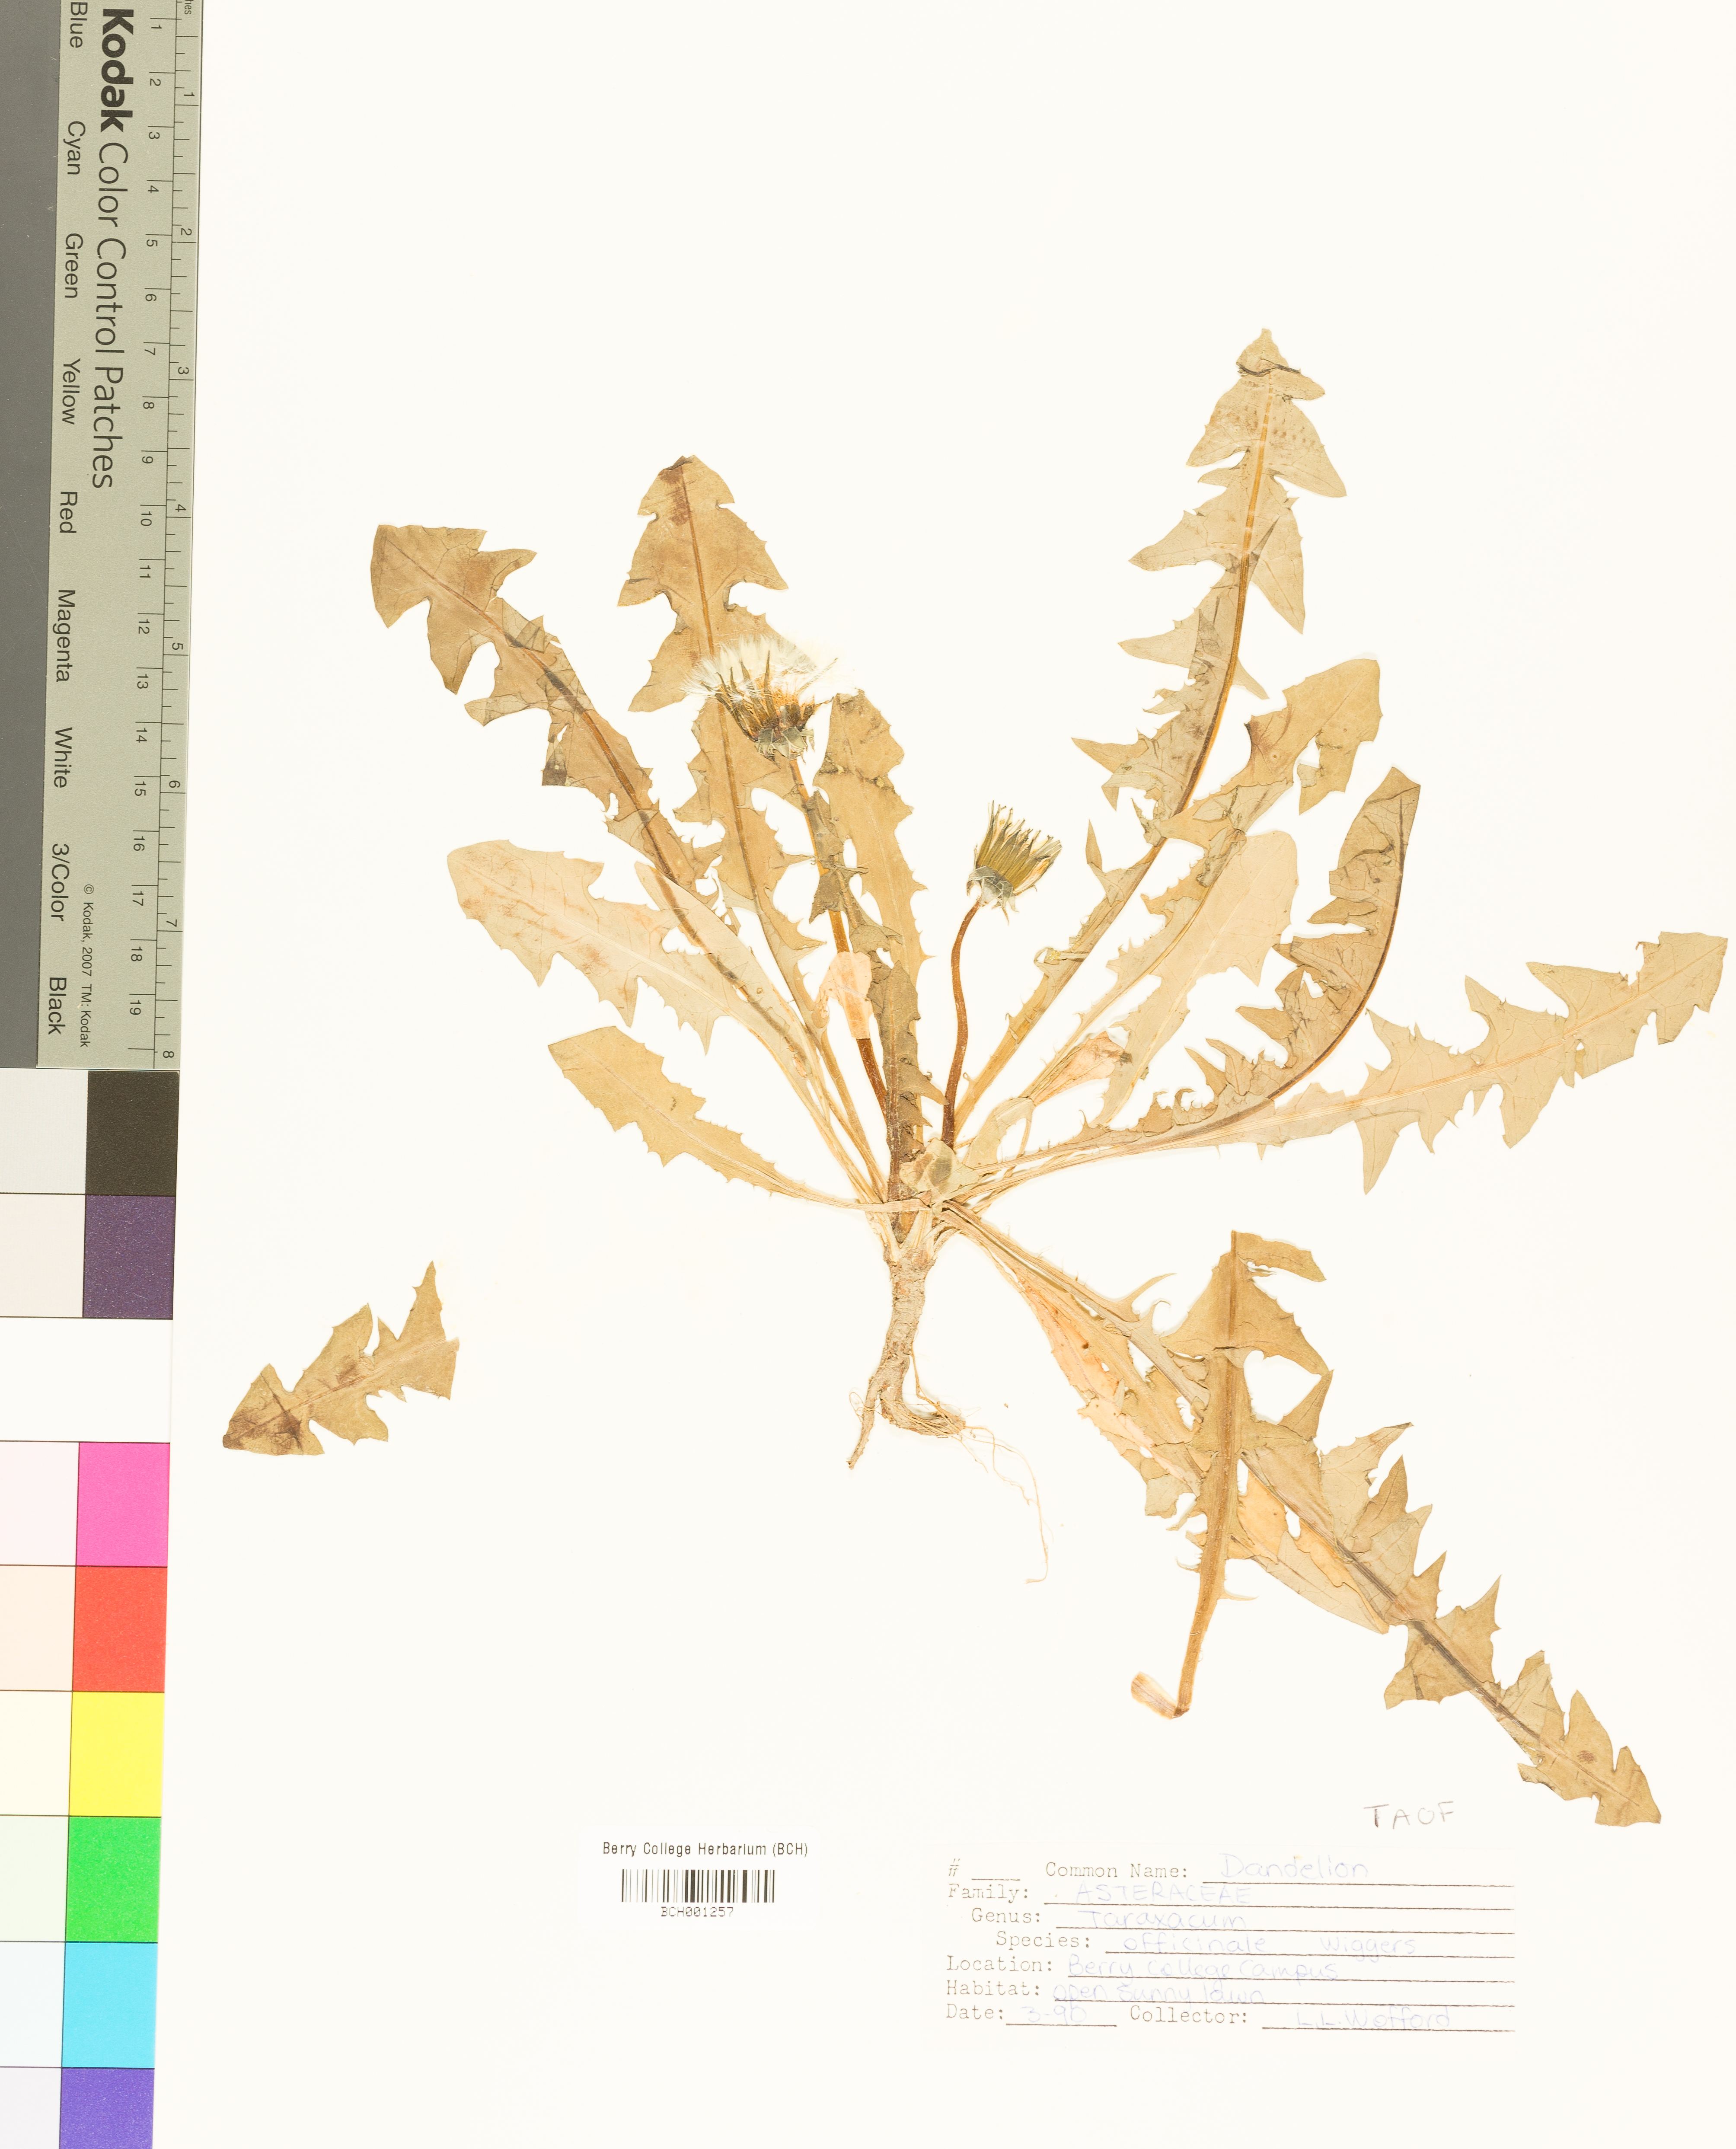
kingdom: Plantae
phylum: Tracheophyta
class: Magnoliopsida
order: Asterales
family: Asteraceae
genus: Taraxacum
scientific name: Taraxacum officinale
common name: Common dandelion
